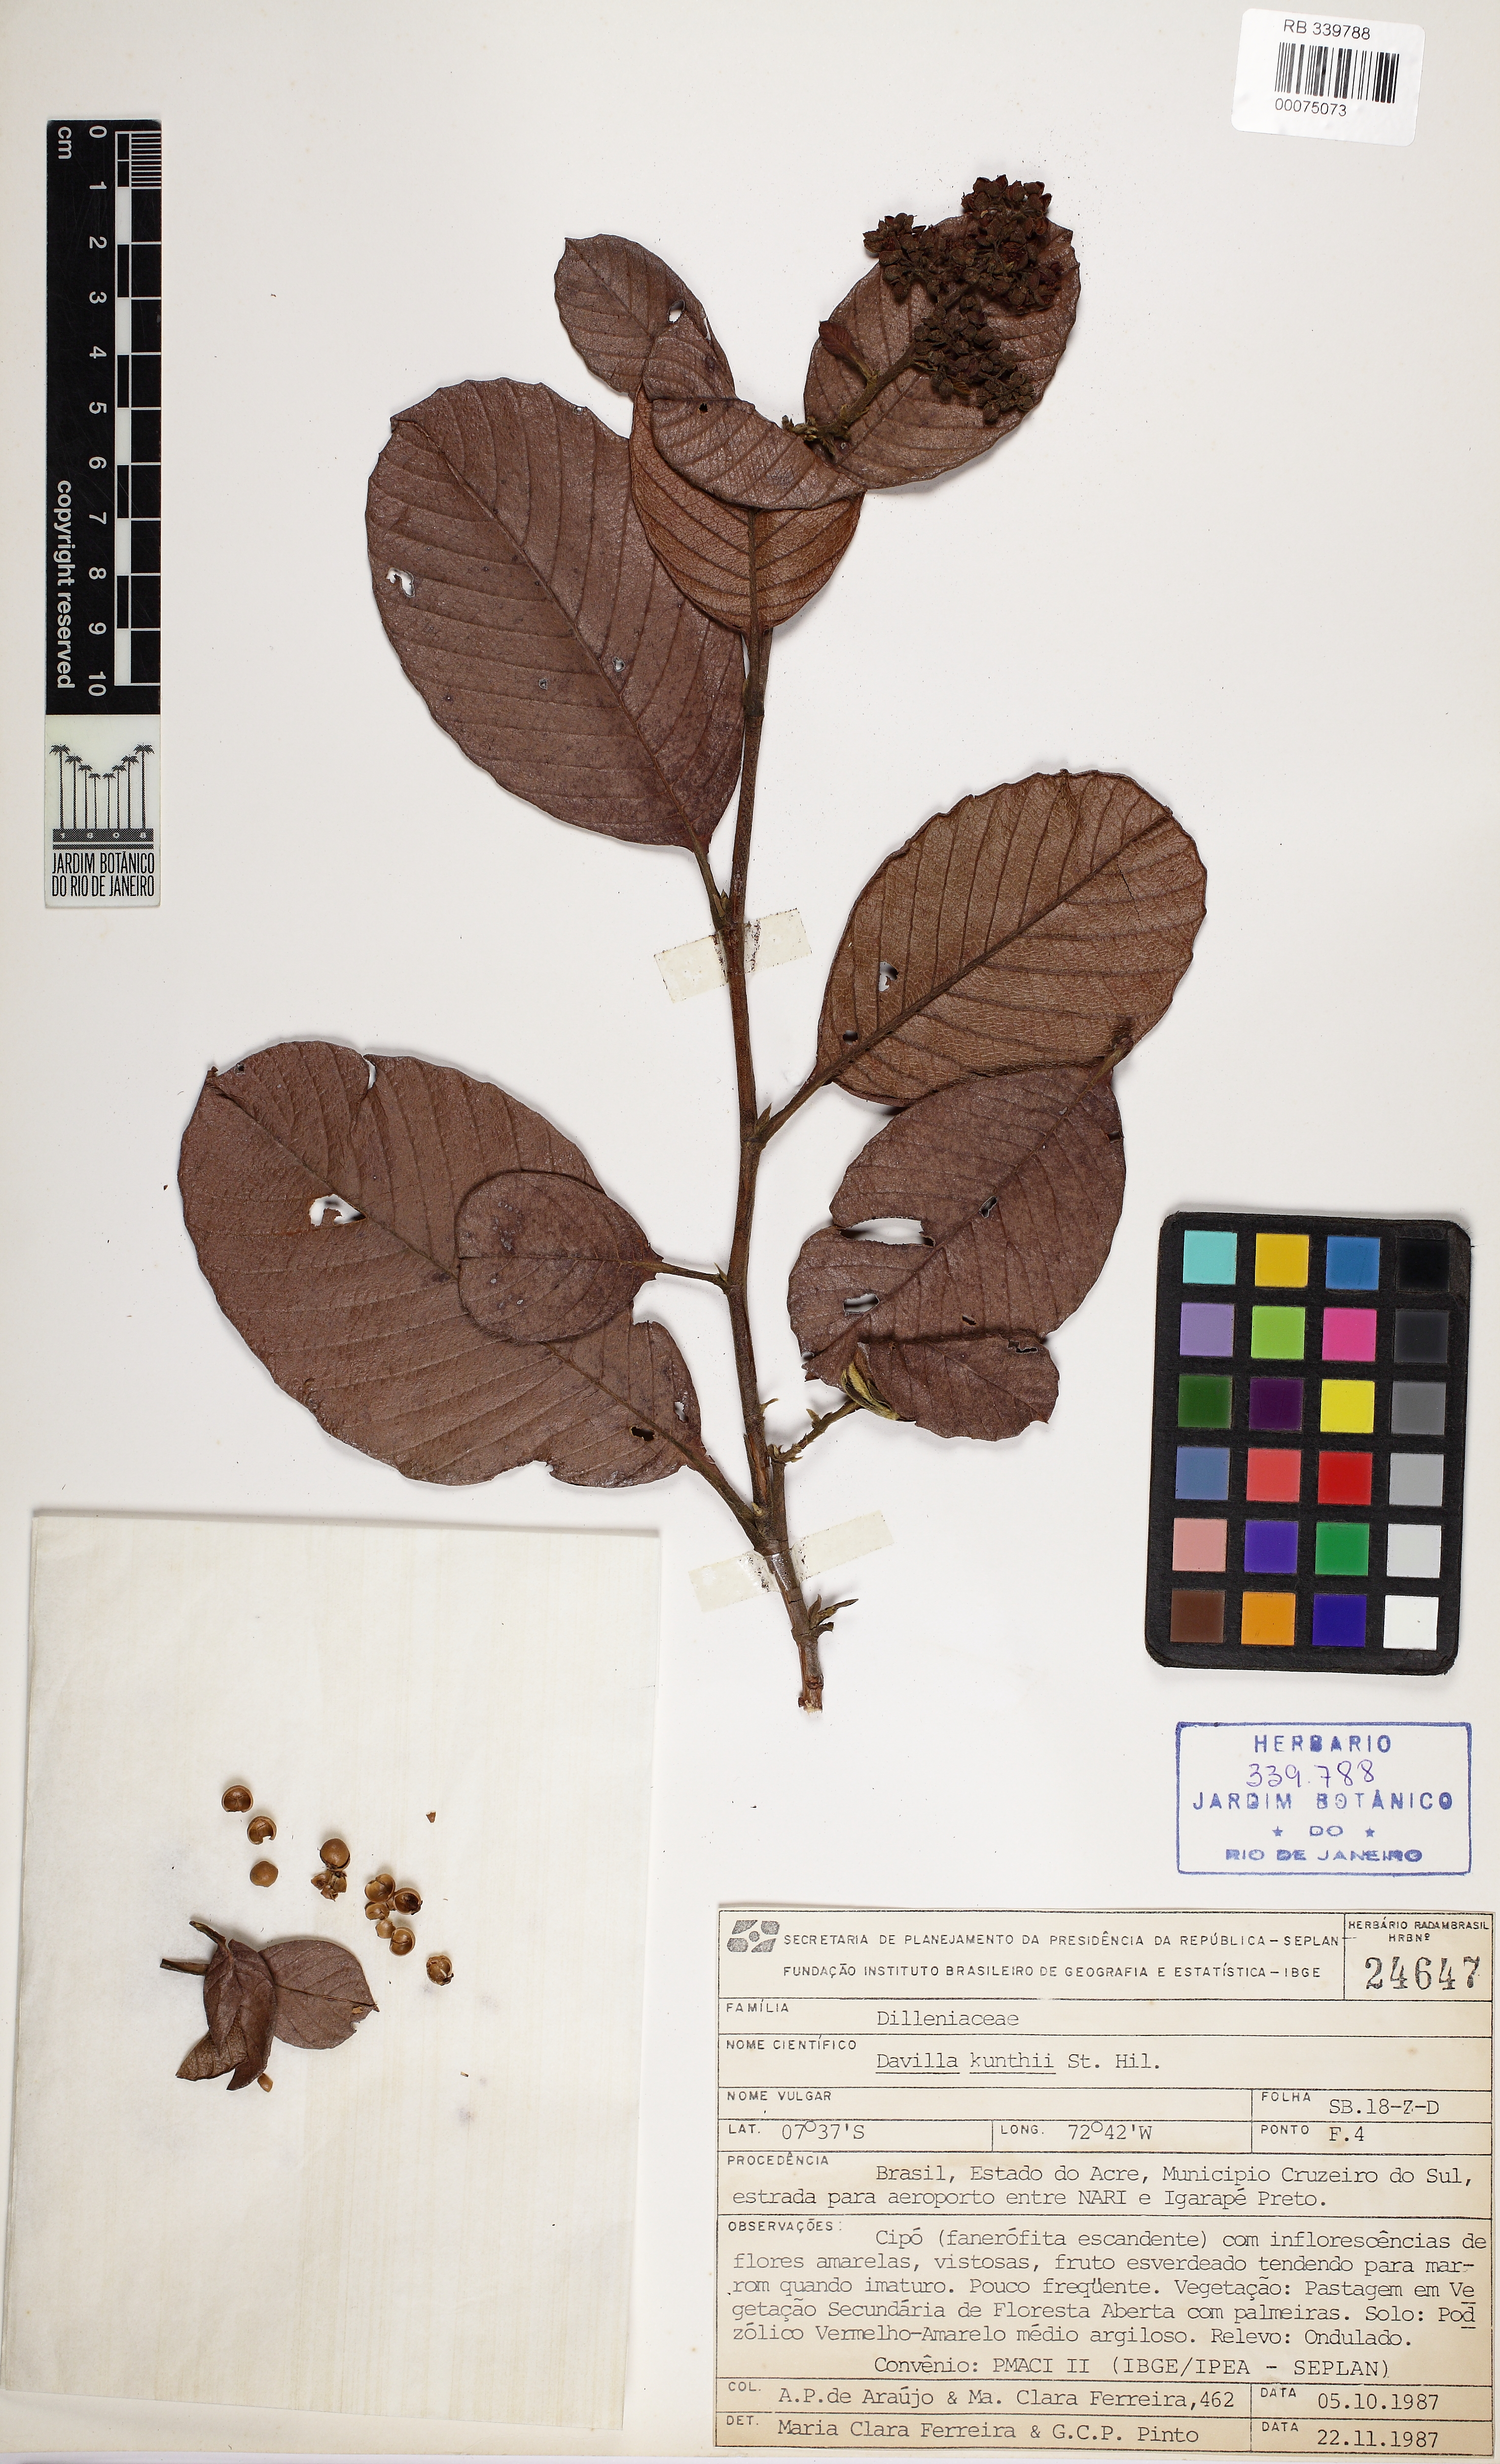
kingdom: Plantae
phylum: Tracheophyta
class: Magnoliopsida
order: Dilleniales
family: Dilleniaceae
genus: Davilla
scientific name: Davilla kunthii
